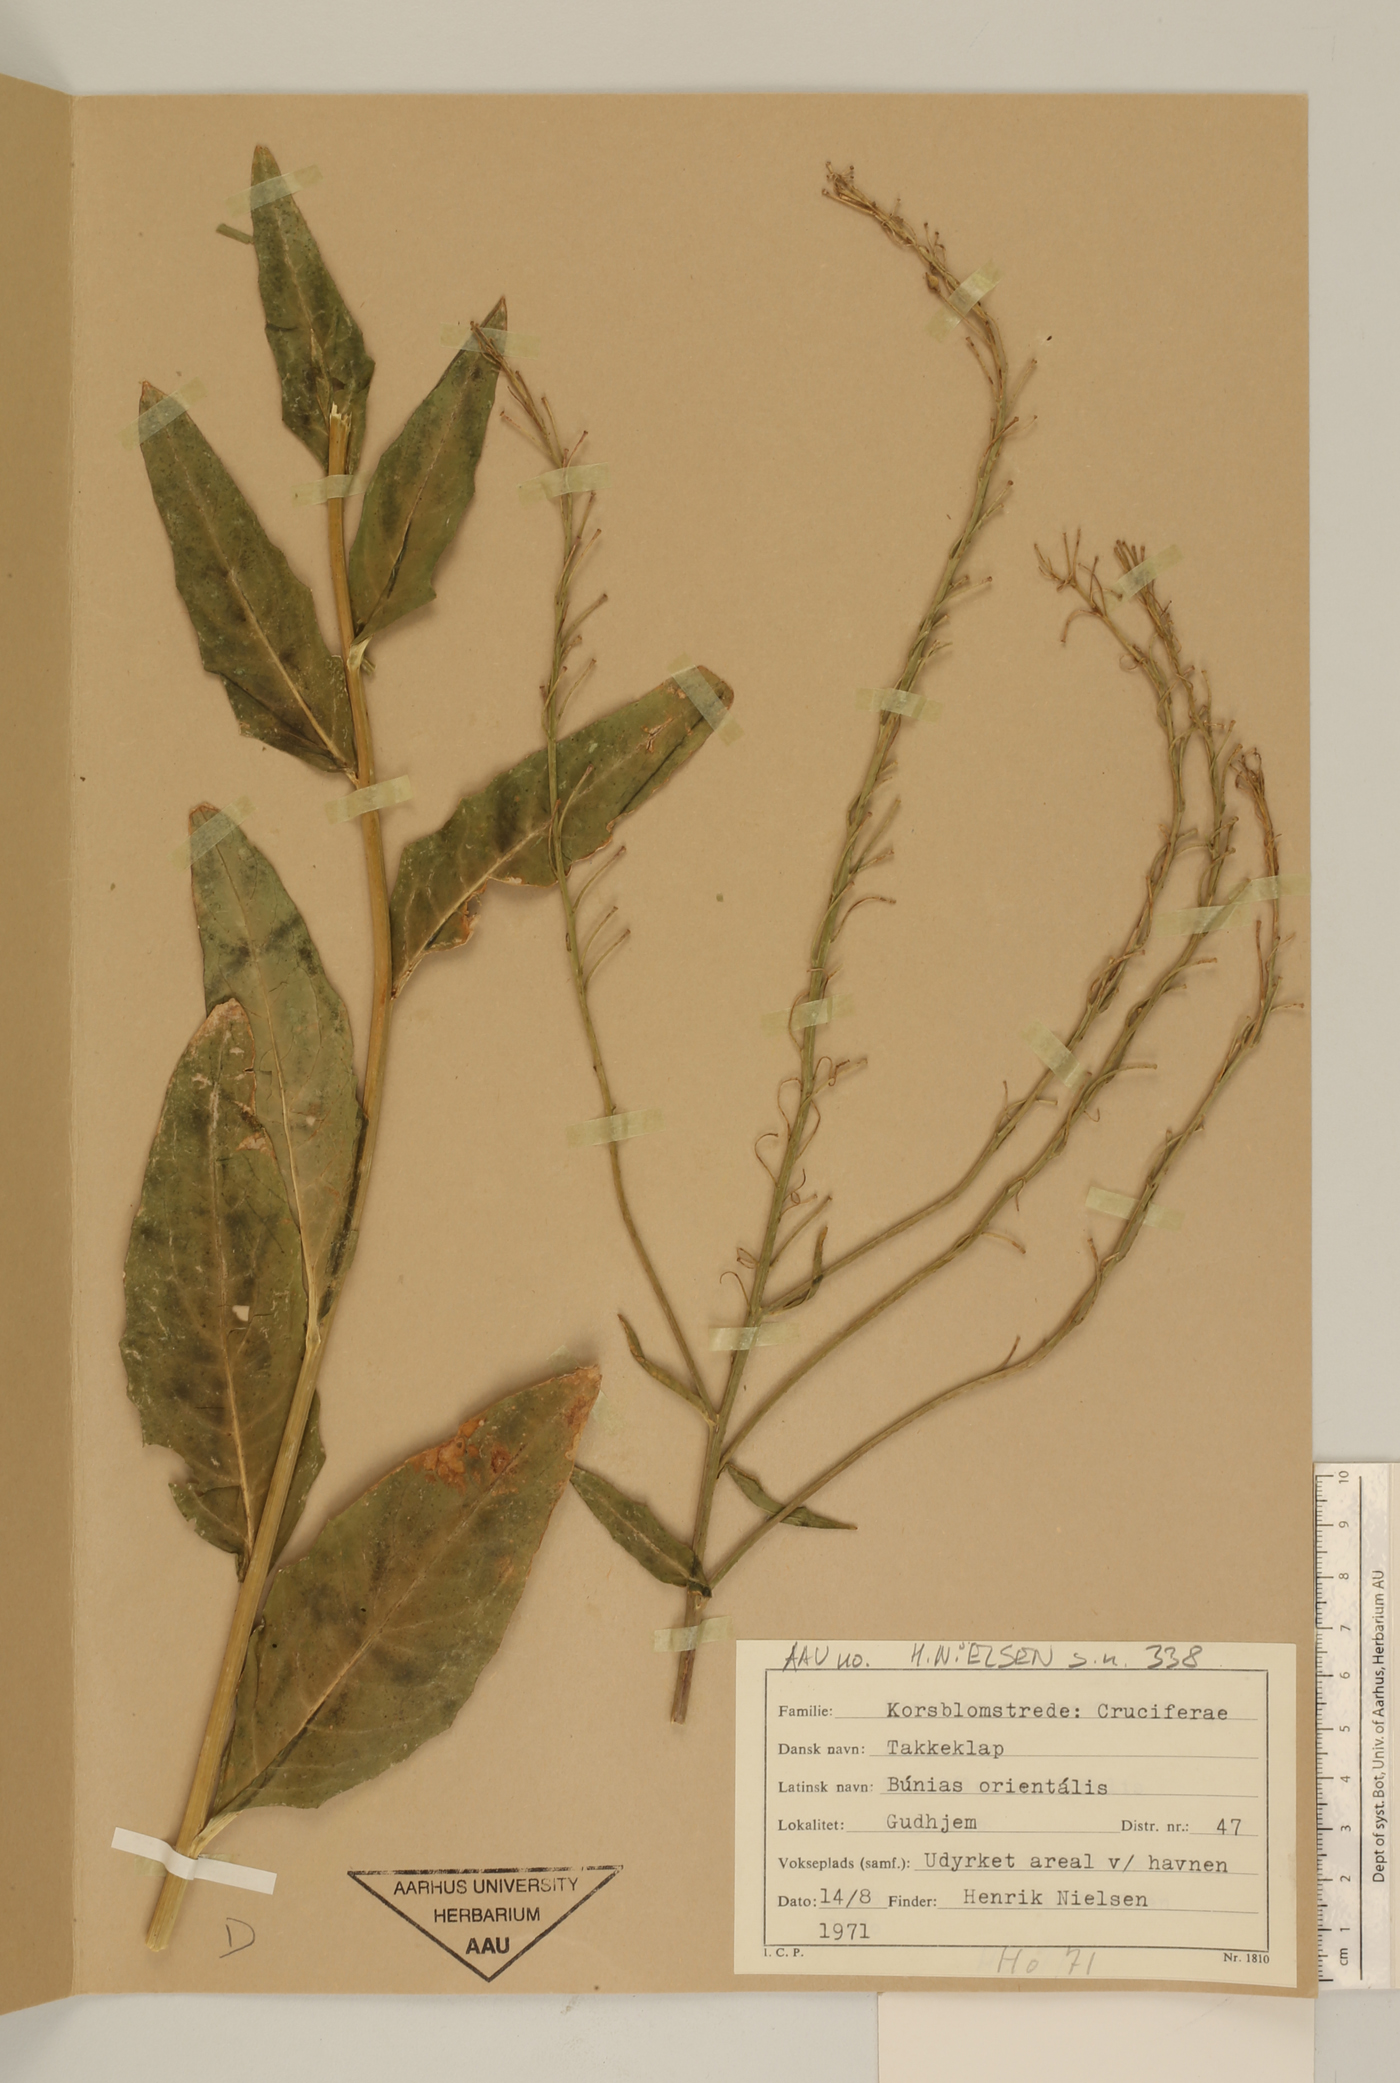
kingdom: Plantae
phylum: Tracheophyta
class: Magnoliopsida
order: Brassicales
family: Brassicaceae
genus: Bunias
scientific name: Bunias orientalis
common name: Warty-cabbage
